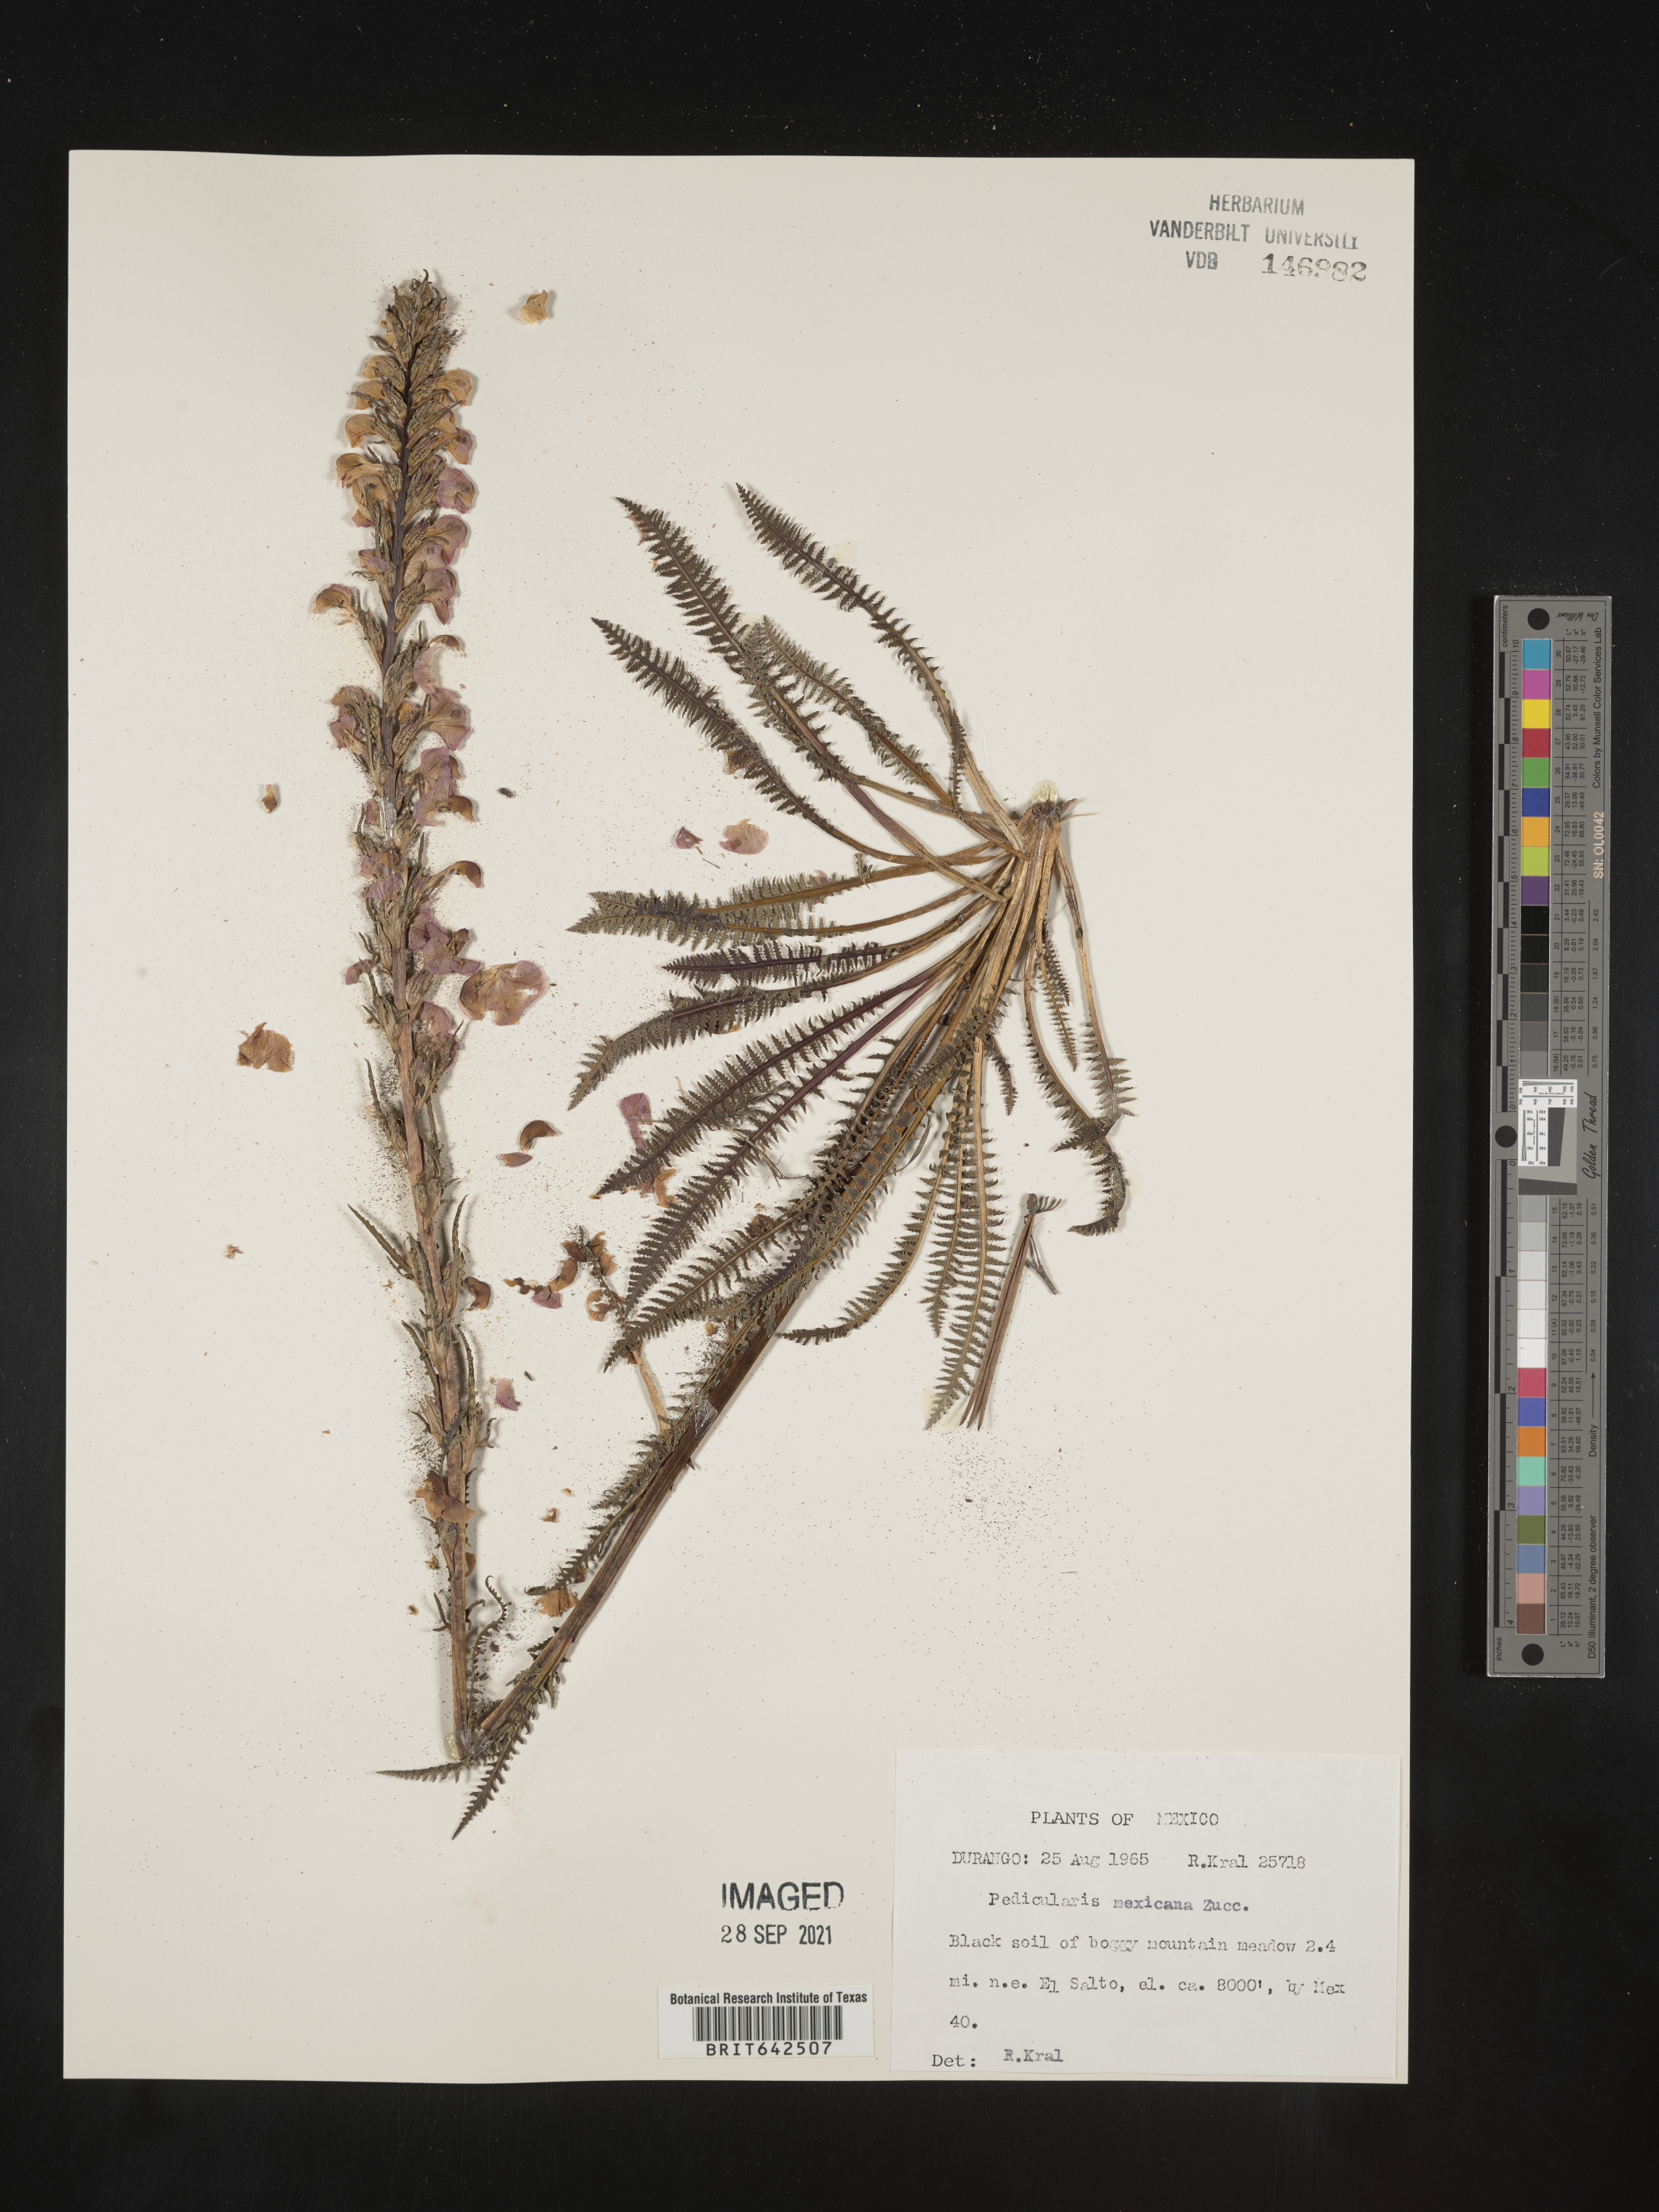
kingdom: Plantae
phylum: Tracheophyta
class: Magnoliopsida
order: Lamiales
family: Orobanchaceae
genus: Pedicularis
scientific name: Pedicularis
